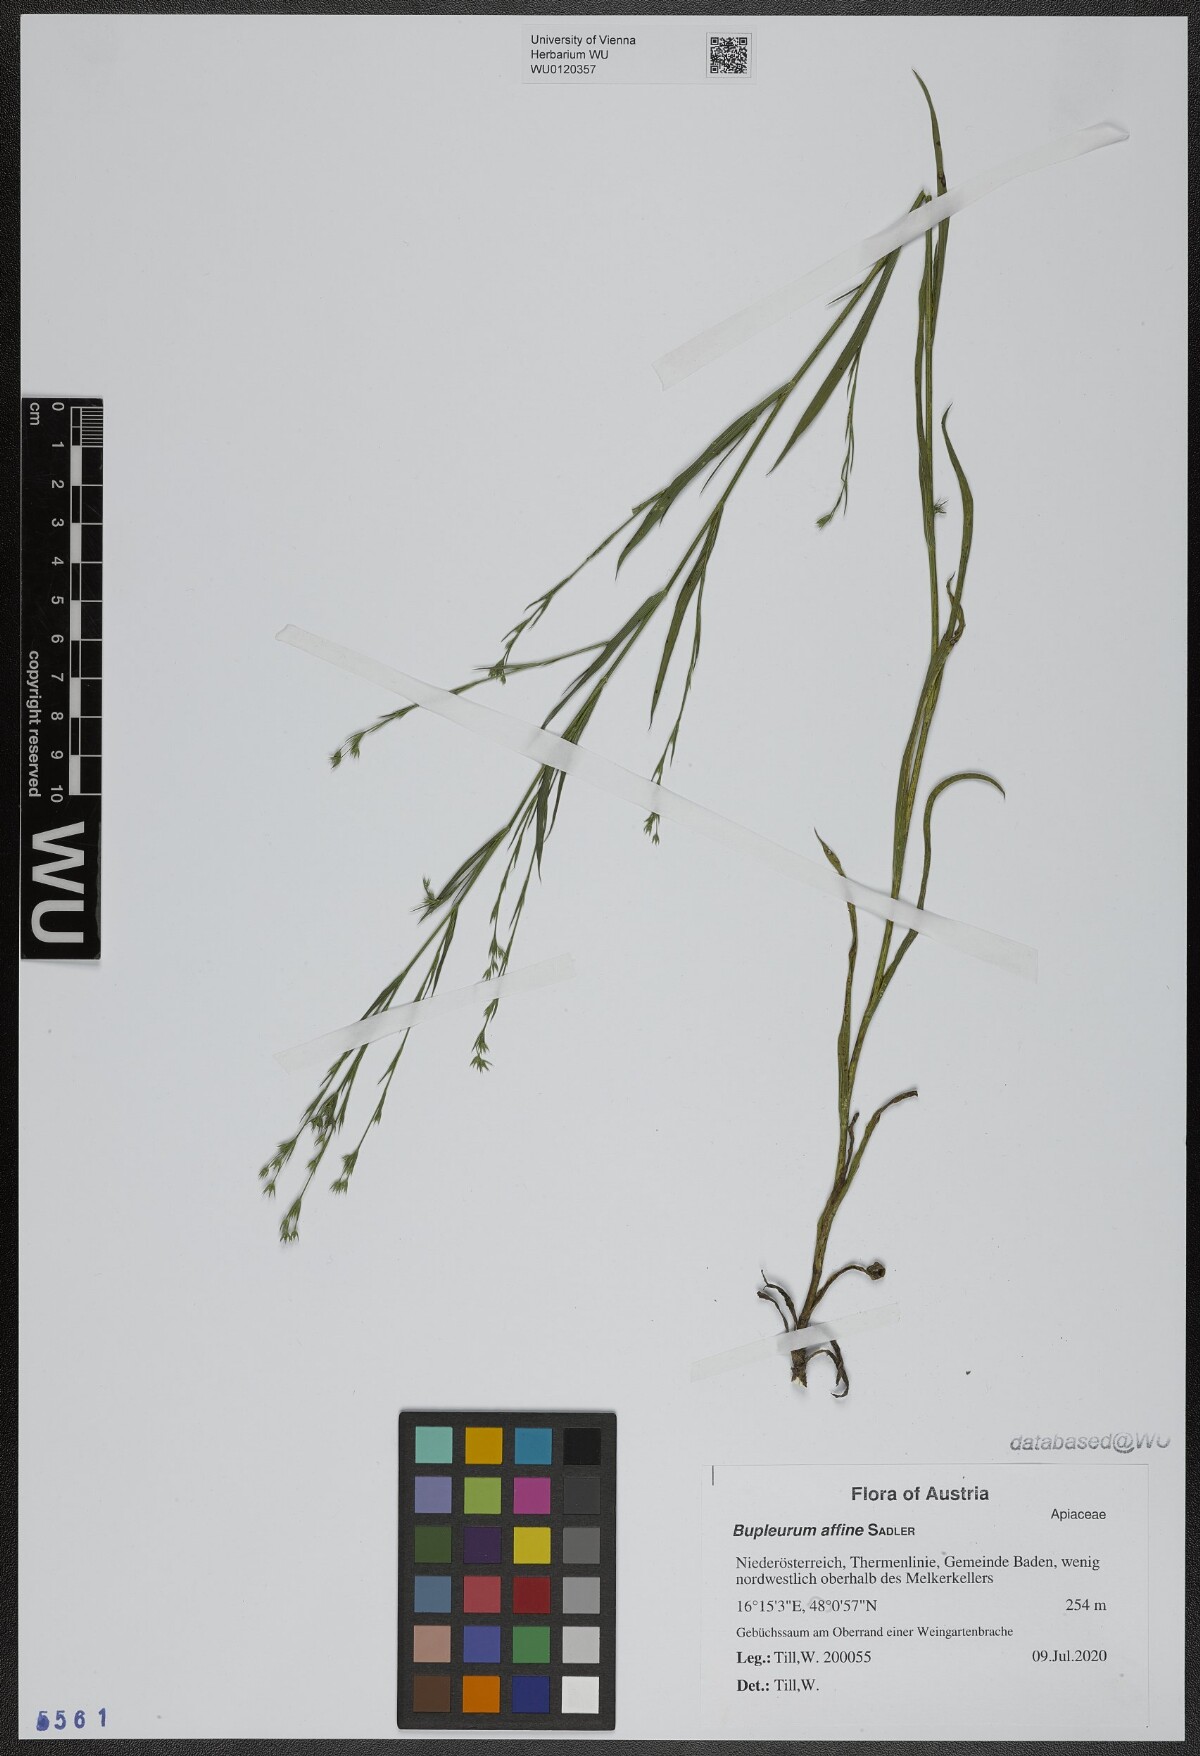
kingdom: Plantae
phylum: Tracheophyta
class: Magnoliopsida
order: Apiales
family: Apiaceae
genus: Bupleurum
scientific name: Bupleurum affine
